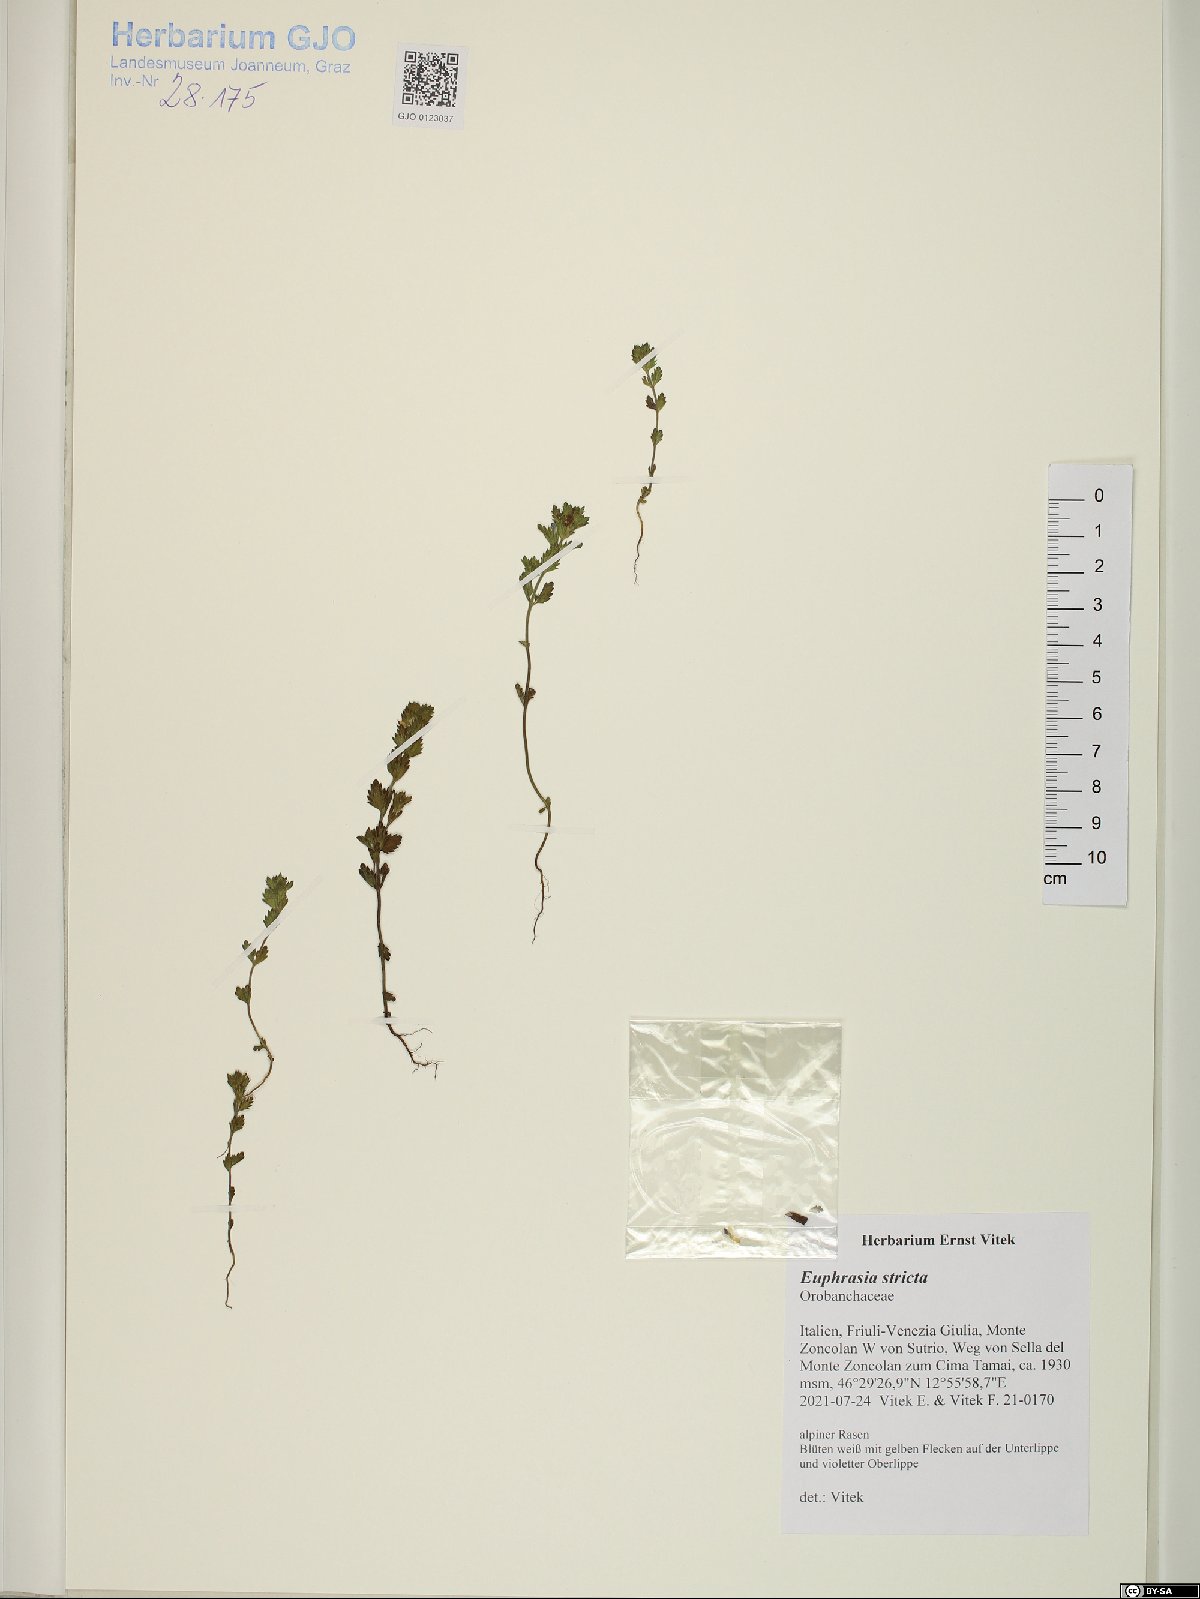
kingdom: Plantae
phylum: Tracheophyta
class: Magnoliopsida
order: Lamiales
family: Orobanchaceae
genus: Euphrasia
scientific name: Euphrasia stricta
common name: Drug eyebright
